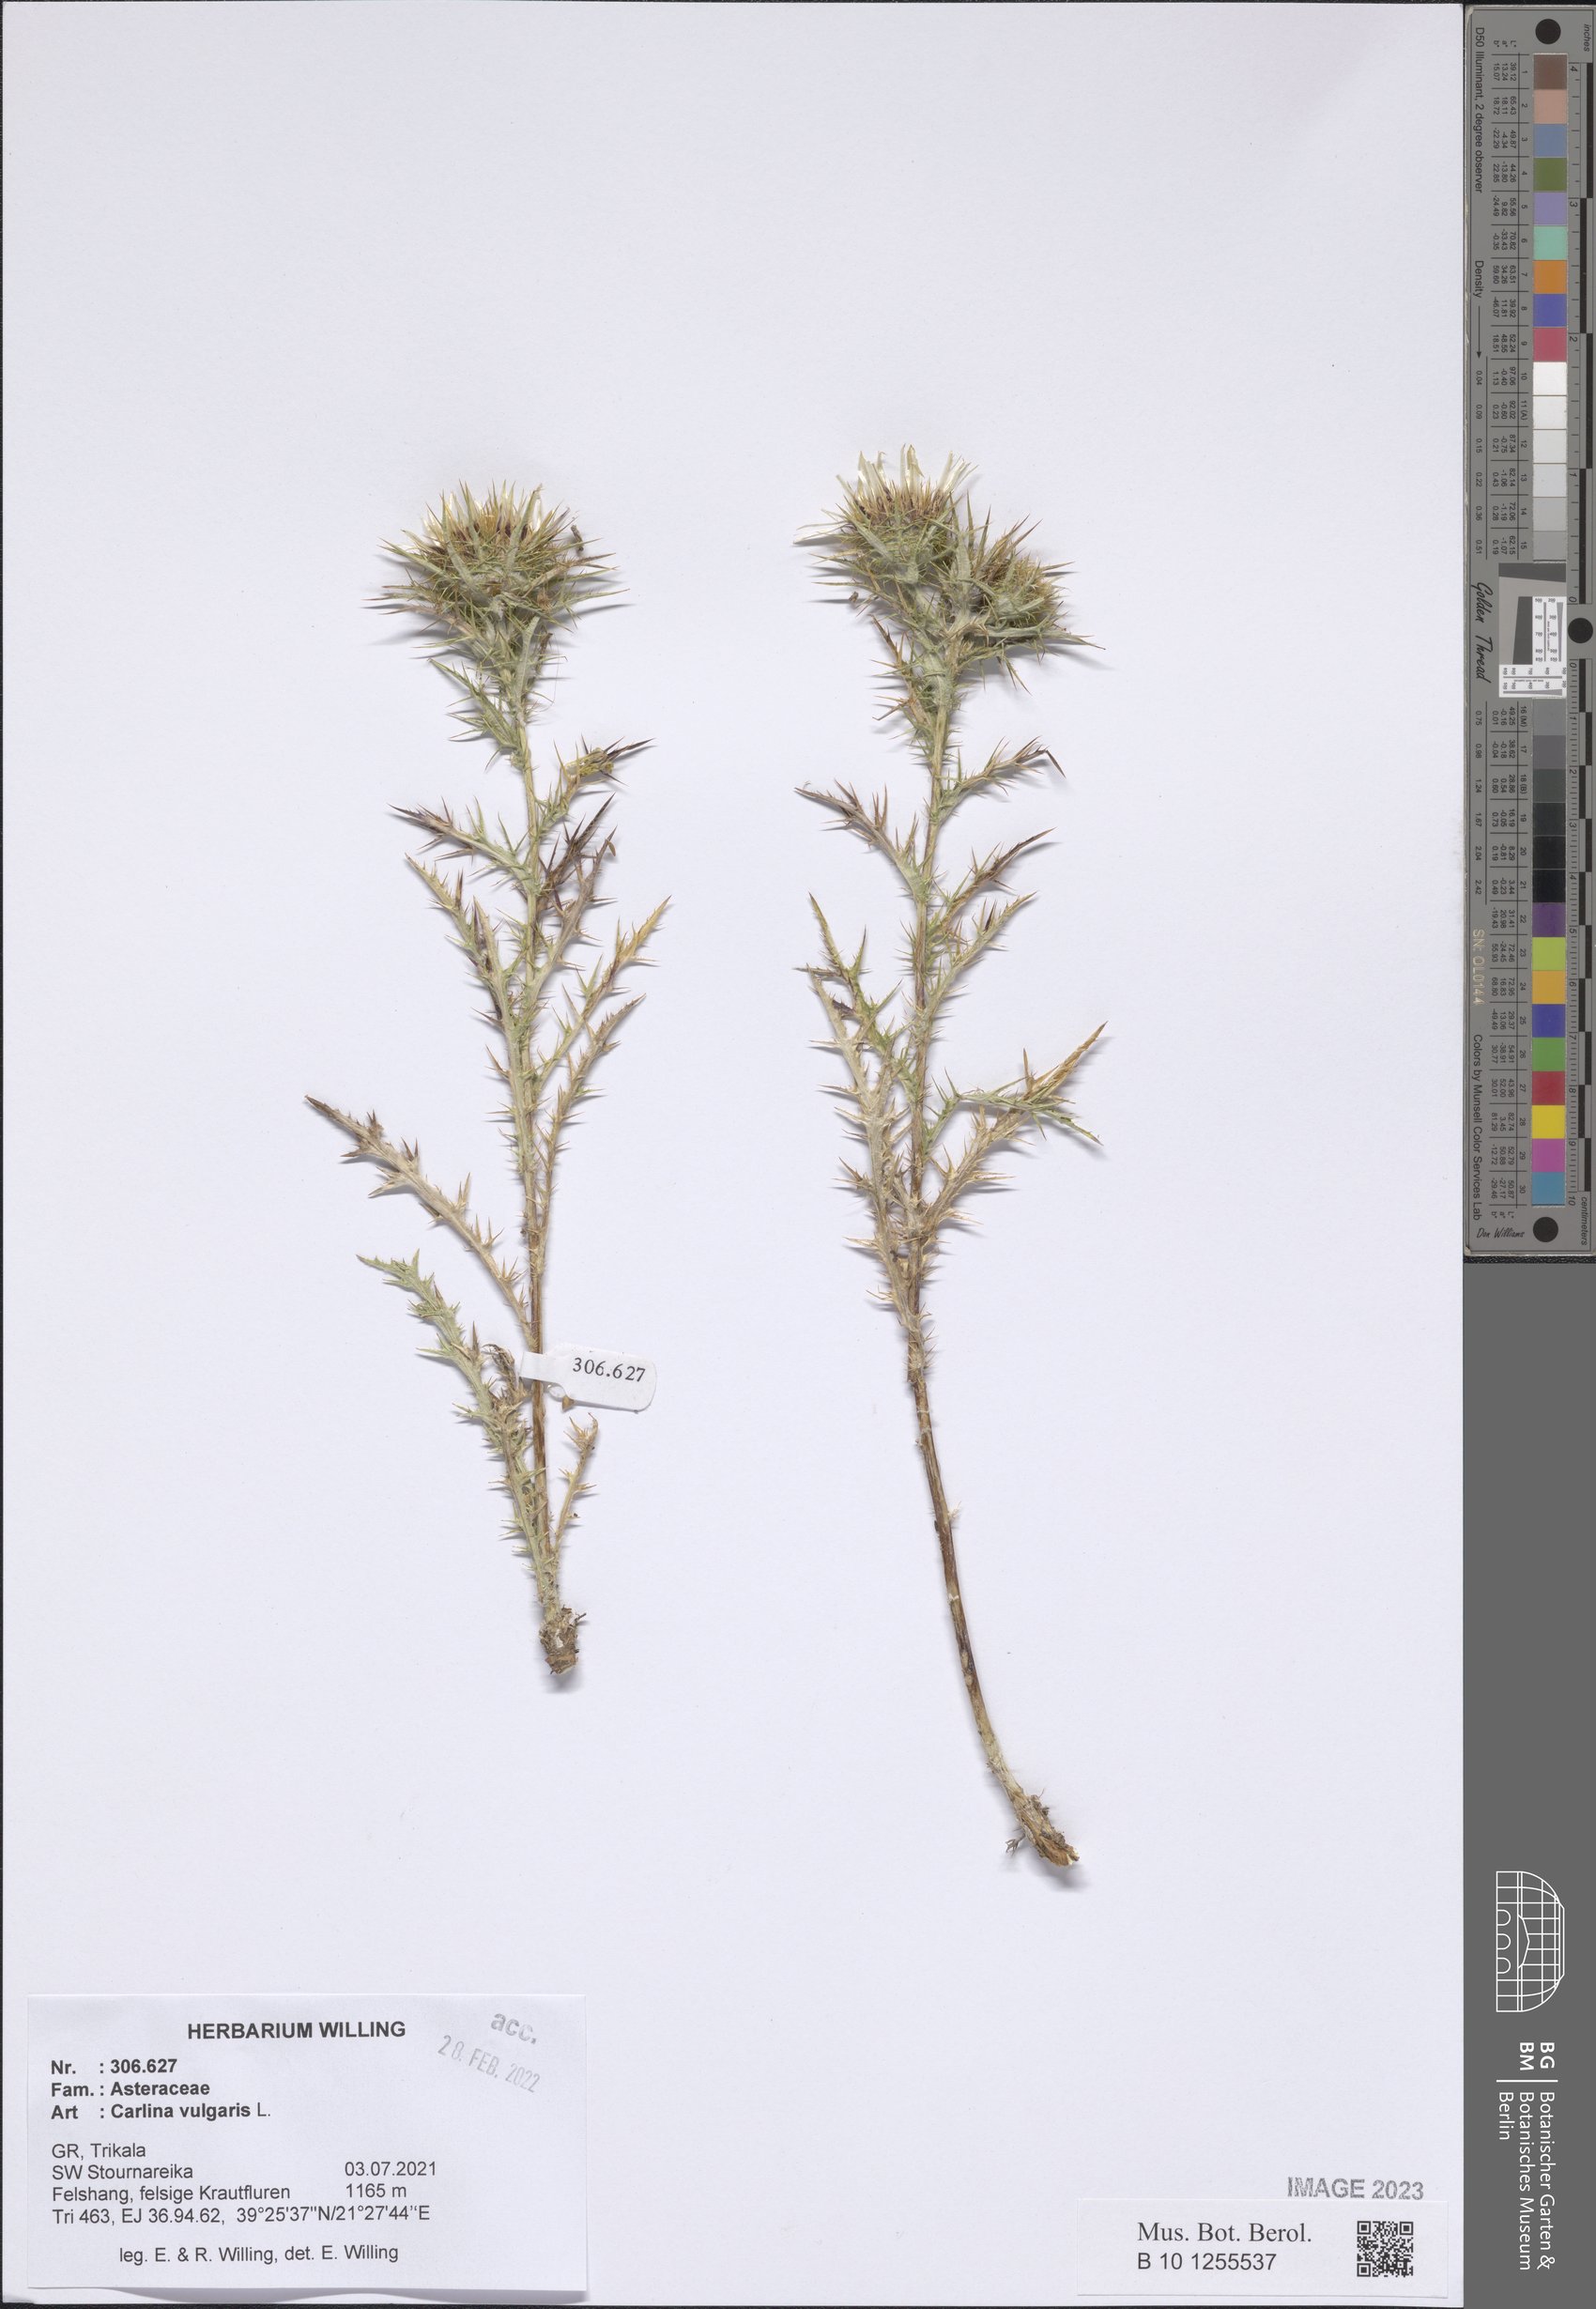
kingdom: Plantae
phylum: Tracheophyta
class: Magnoliopsida
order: Asterales
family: Asteraceae
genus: Carlina
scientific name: Carlina vulgaris
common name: Carline thistle
